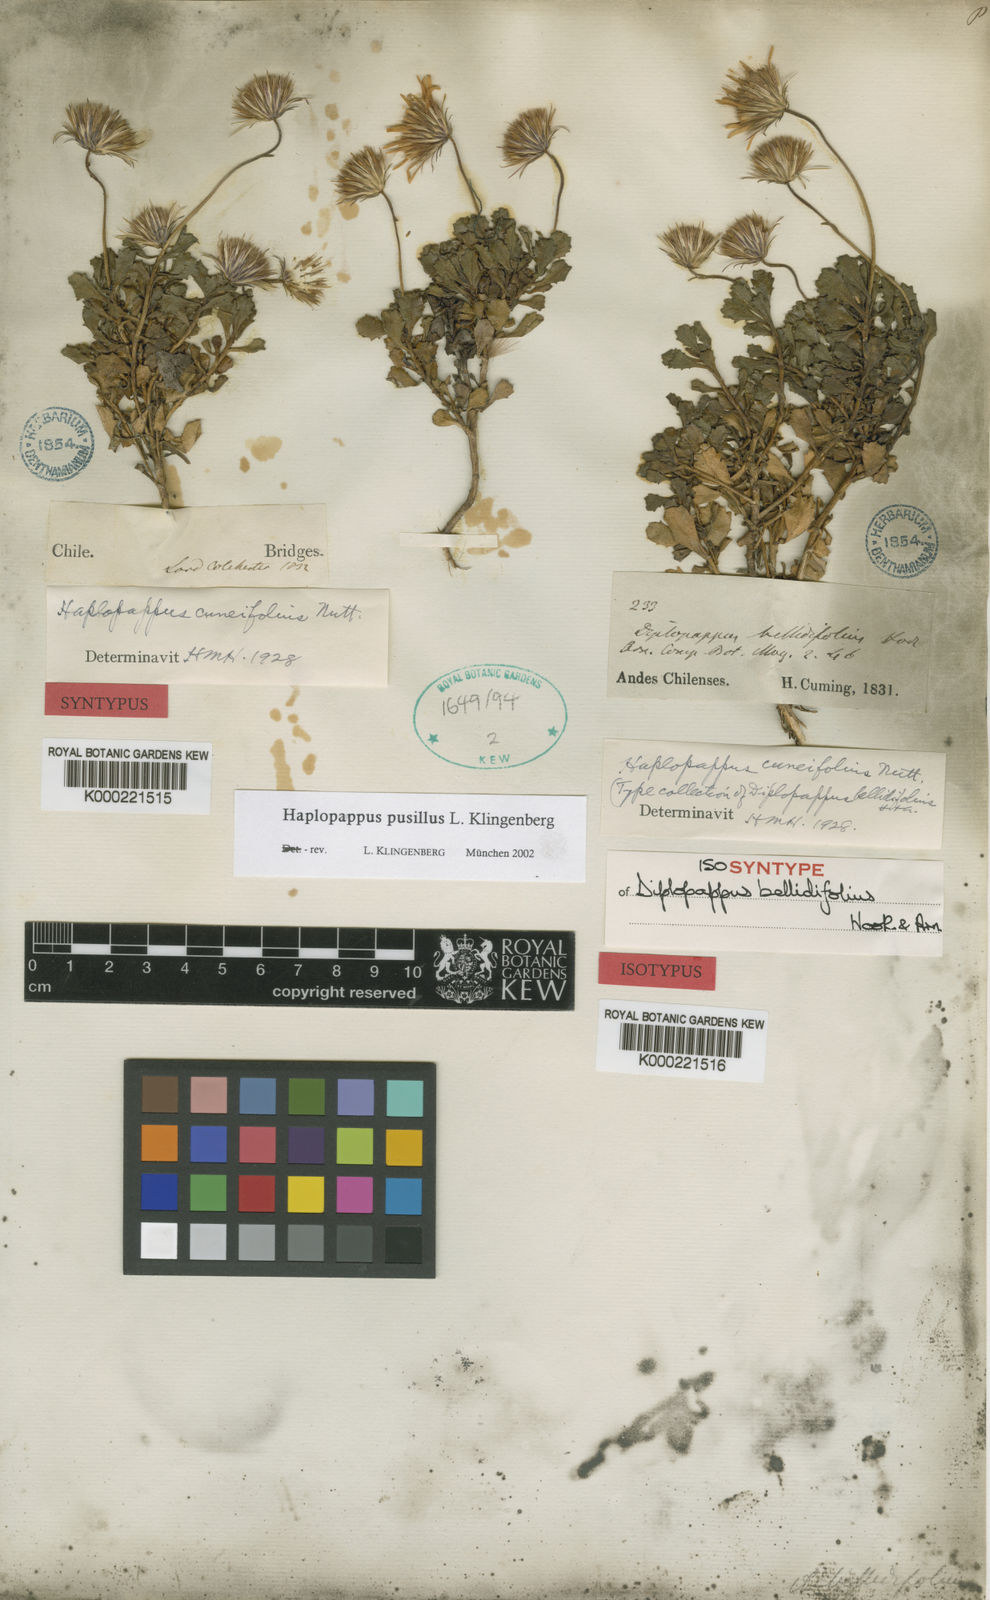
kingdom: Plantae
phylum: Tracheophyta
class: Magnoliopsida
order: Asterales
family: Asteraceae
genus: Haplopappus
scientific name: Haplopappus pusillus
